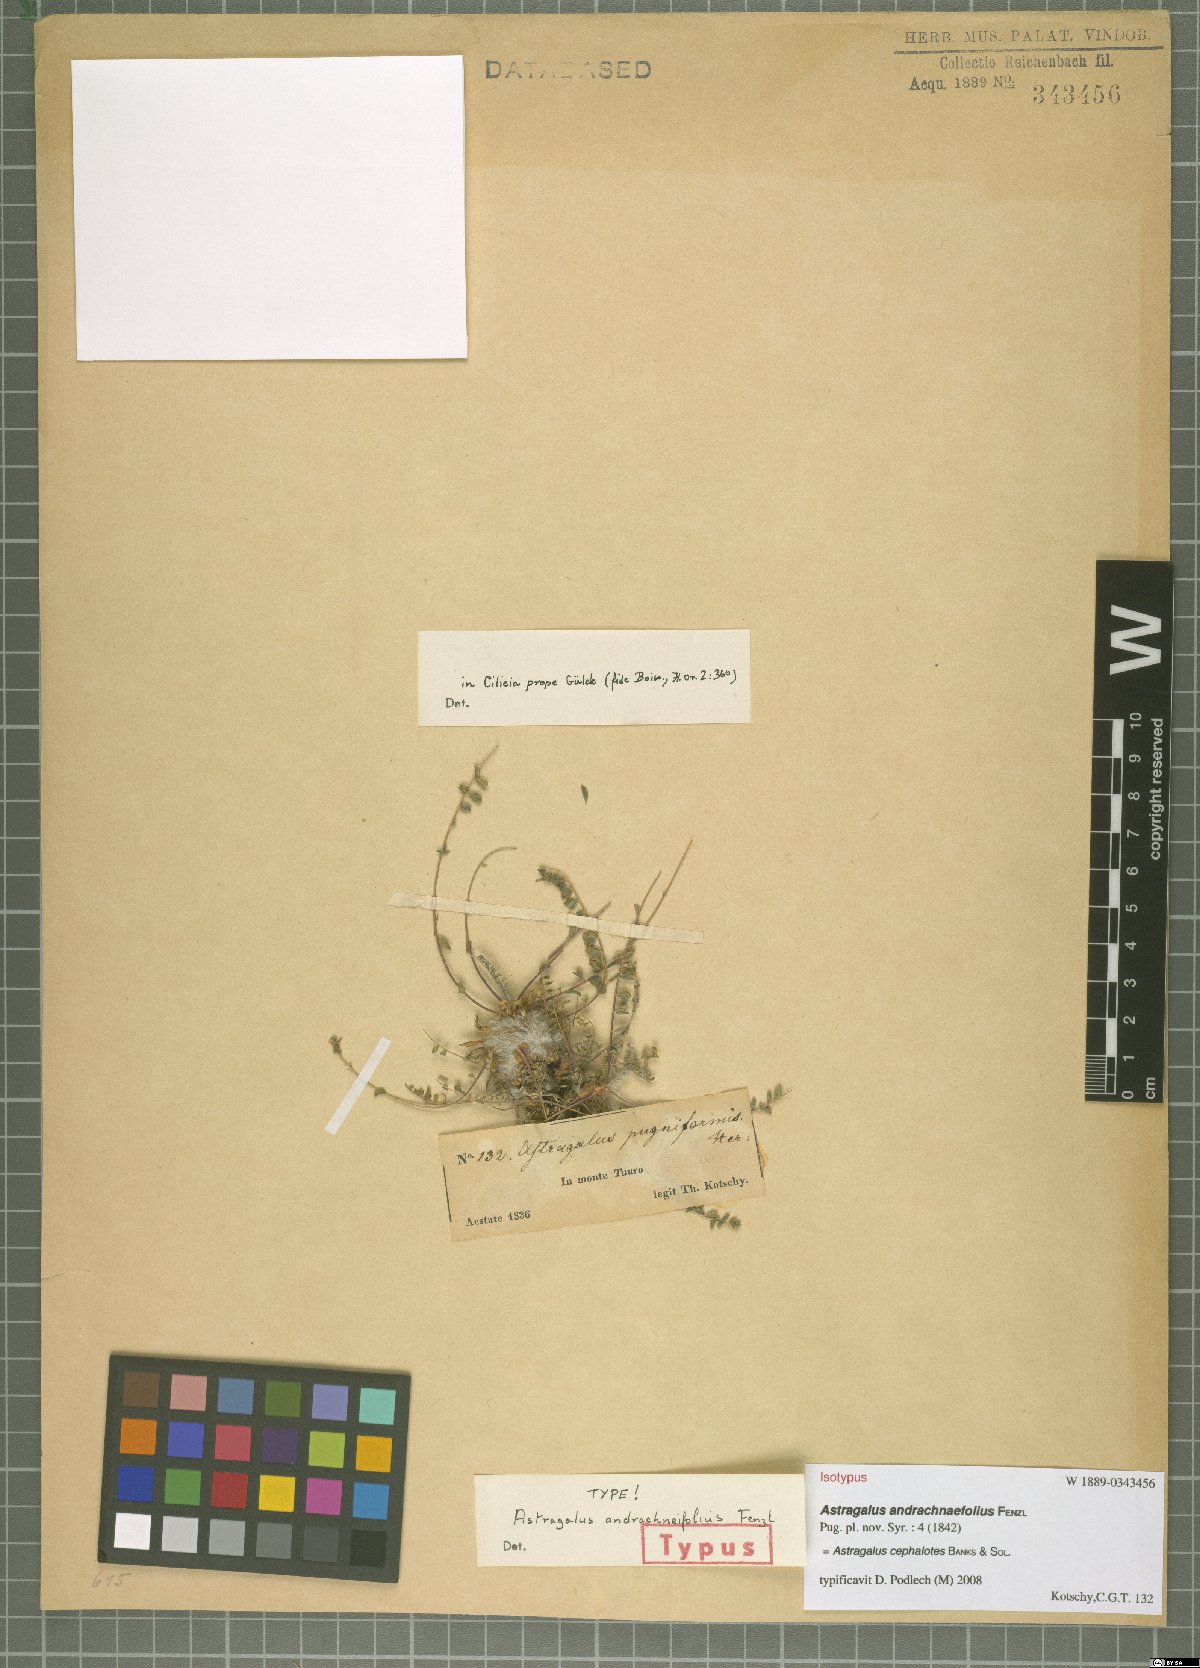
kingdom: Plantae
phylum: Tracheophyta
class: Magnoliopsida
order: Fabales
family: Fabaceae
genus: Astragalus
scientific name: Astragalus cephalotes
